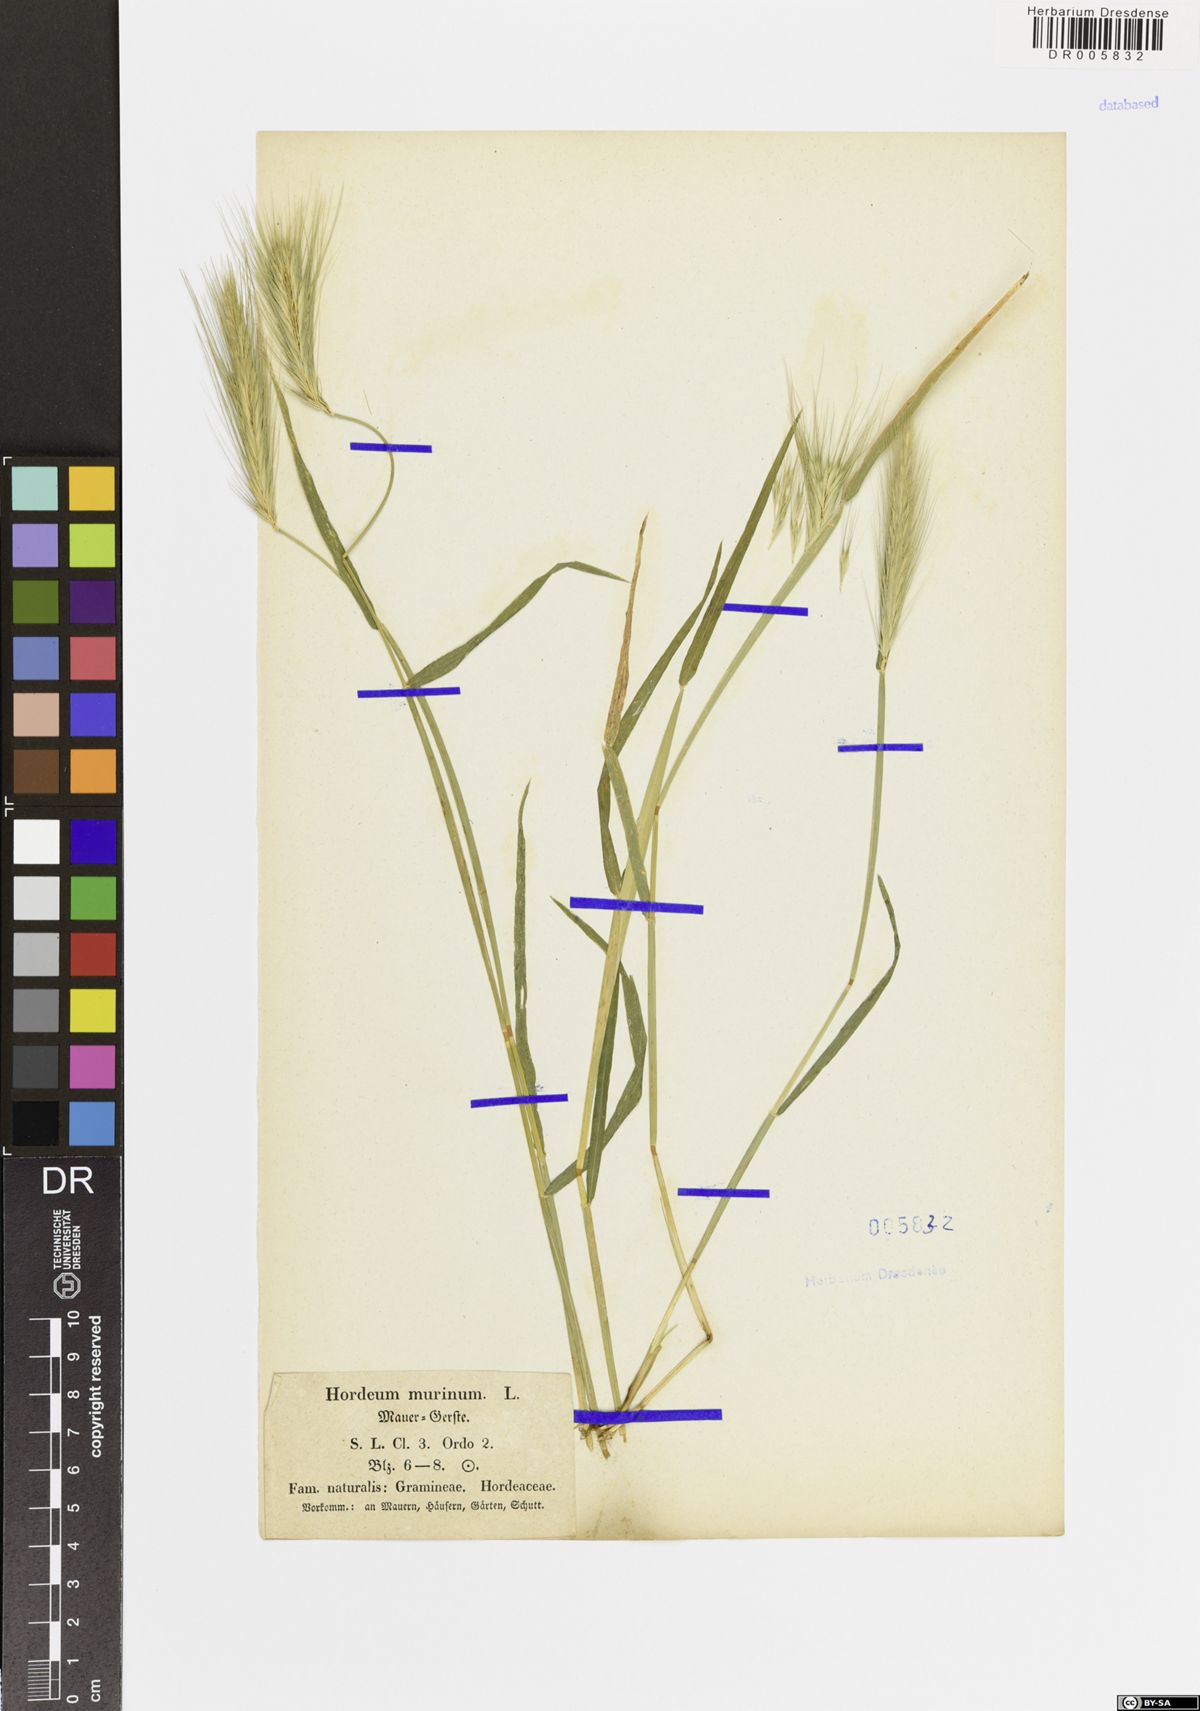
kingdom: Plantae
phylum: Tracheophyta
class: Liliopsida
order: Poales
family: Poaceae
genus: Hordeum
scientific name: Hordeum murinum
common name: Wall barley
